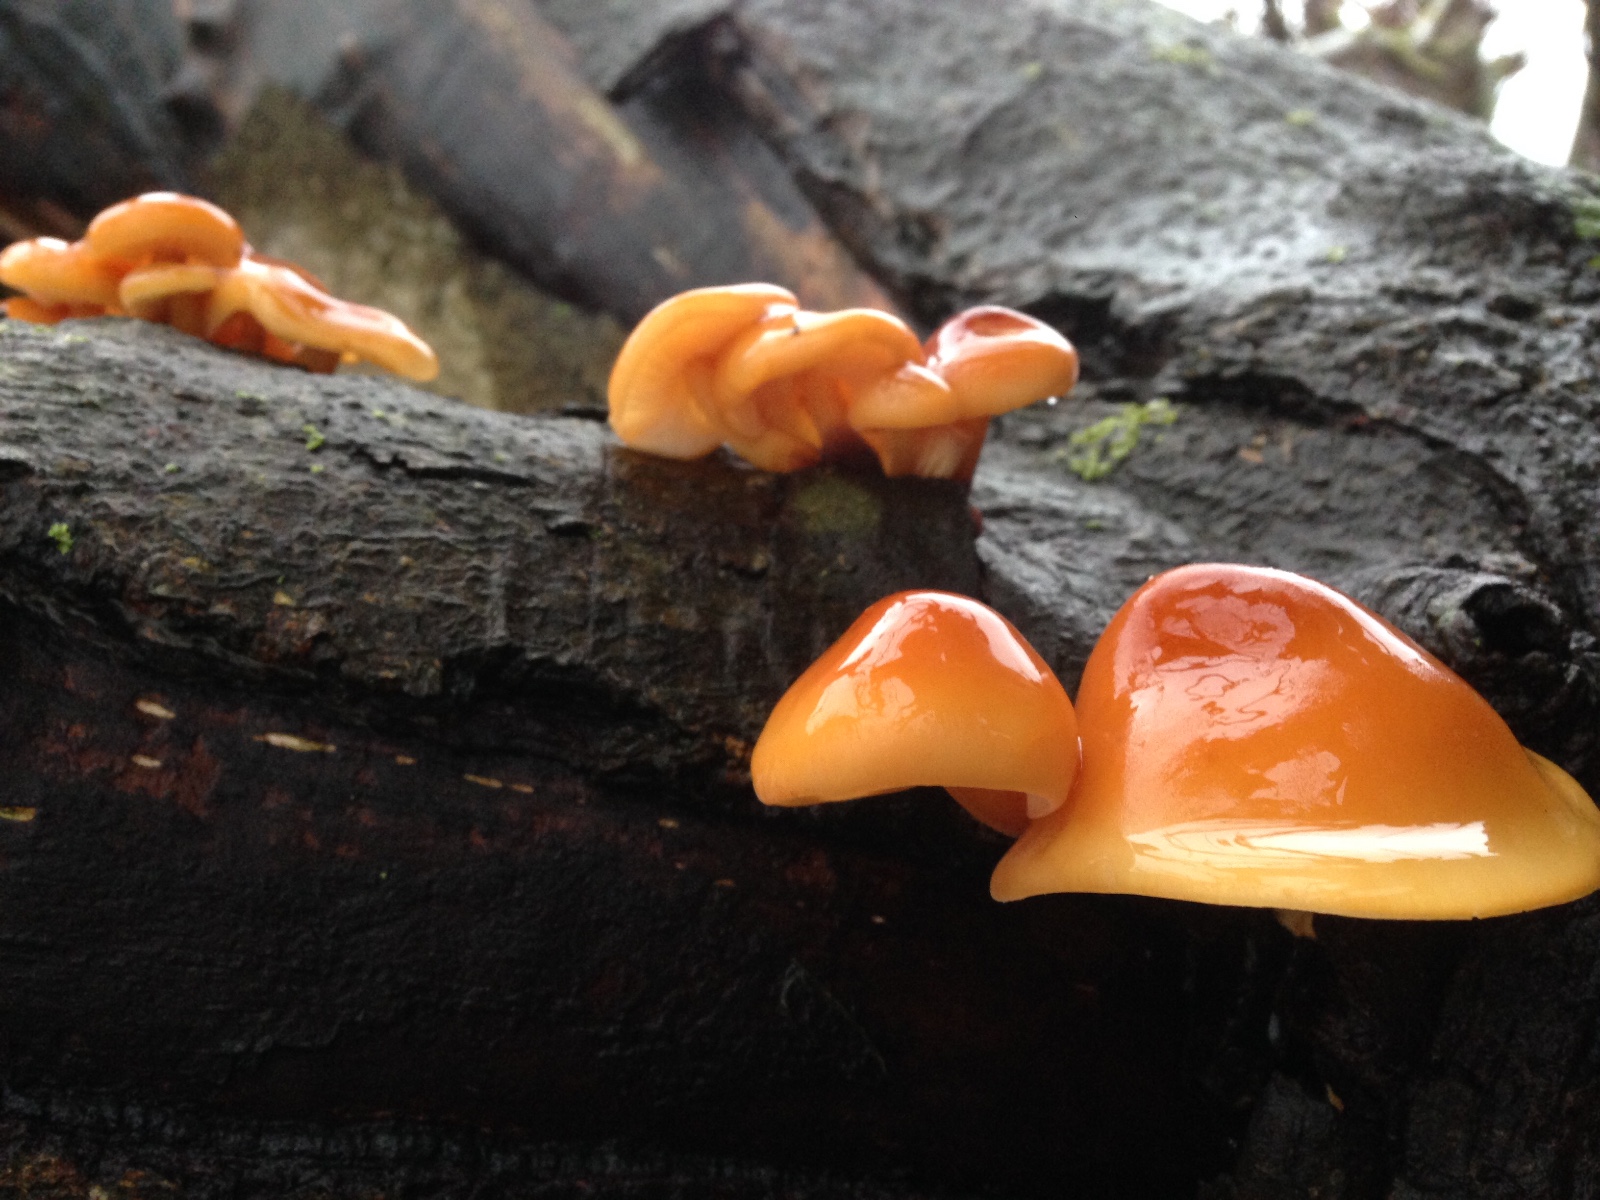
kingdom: Fungi
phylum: Basidiomycota
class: Agaricomycetes
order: Agaricales
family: Physalacriaceae
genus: Flammulina
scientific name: Flammulina velutipes
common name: gul fløjlsfod
